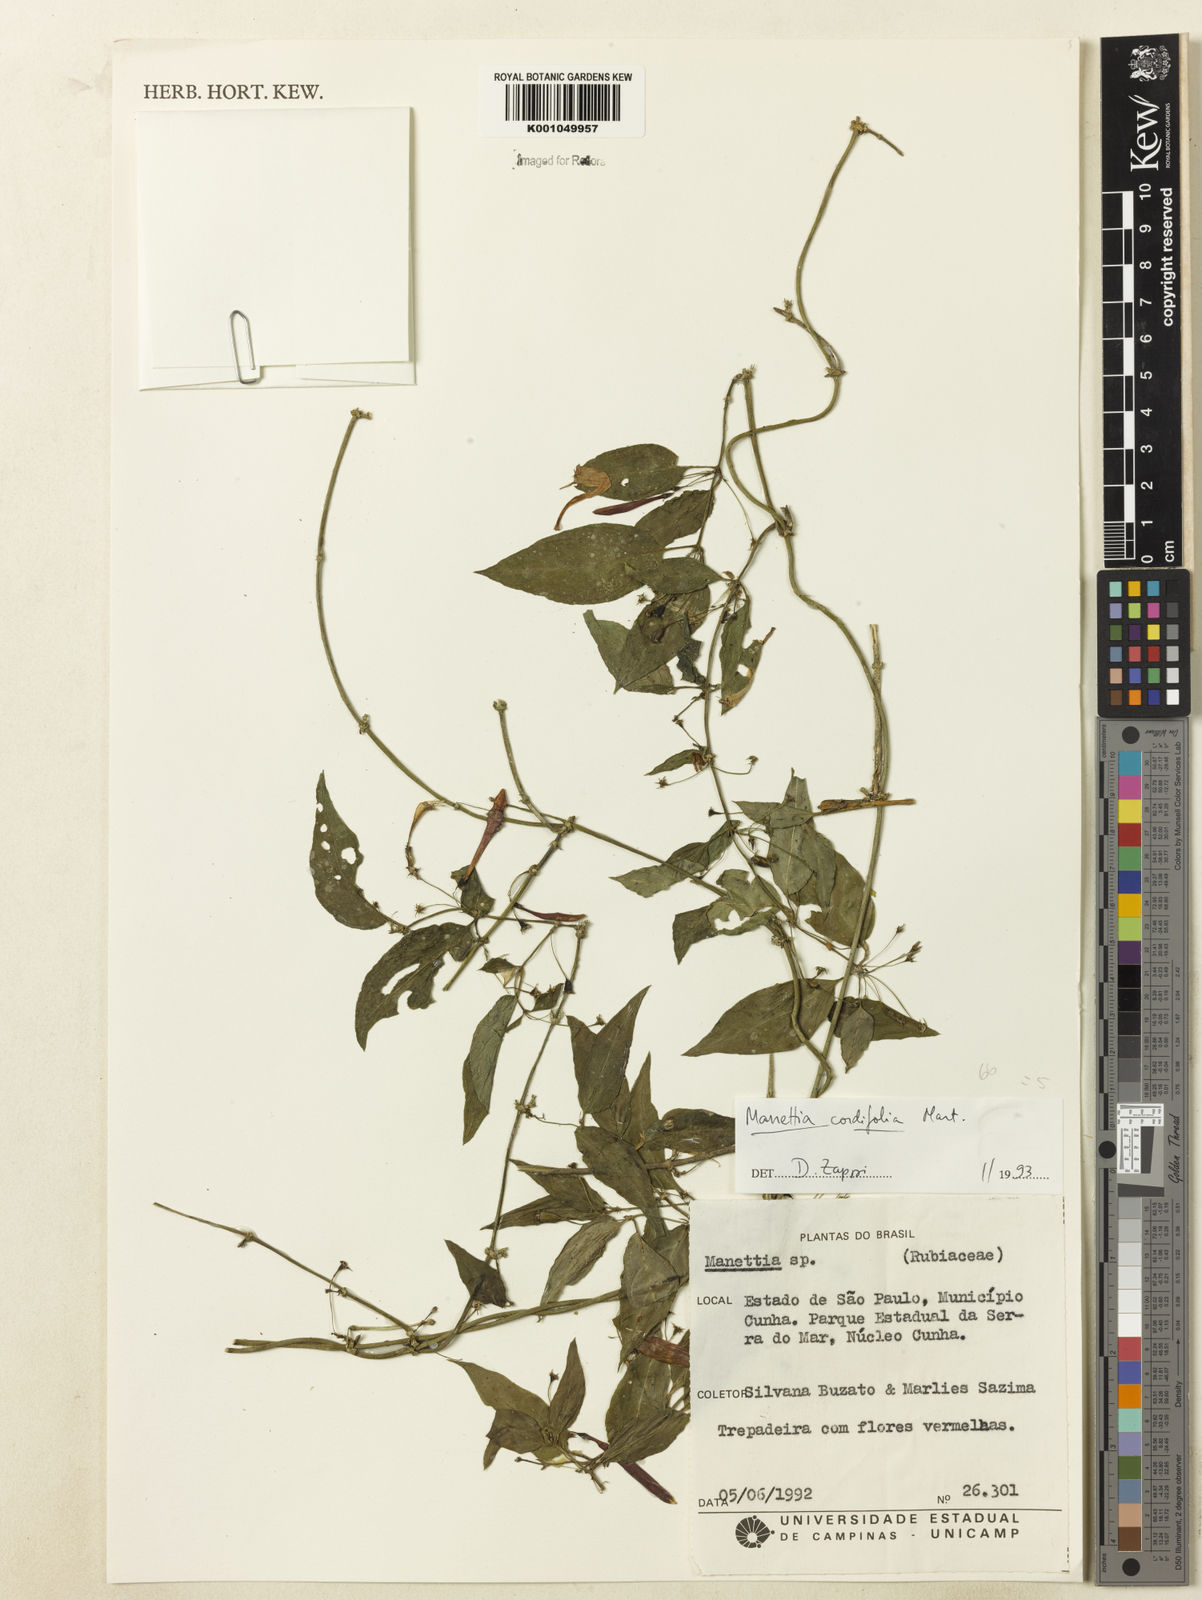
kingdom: Plantae
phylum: Tracheophyta
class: Magnoliopsida
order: Gentianales
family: Rubiaceae
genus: Manettia
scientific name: Manettia cordifolia
